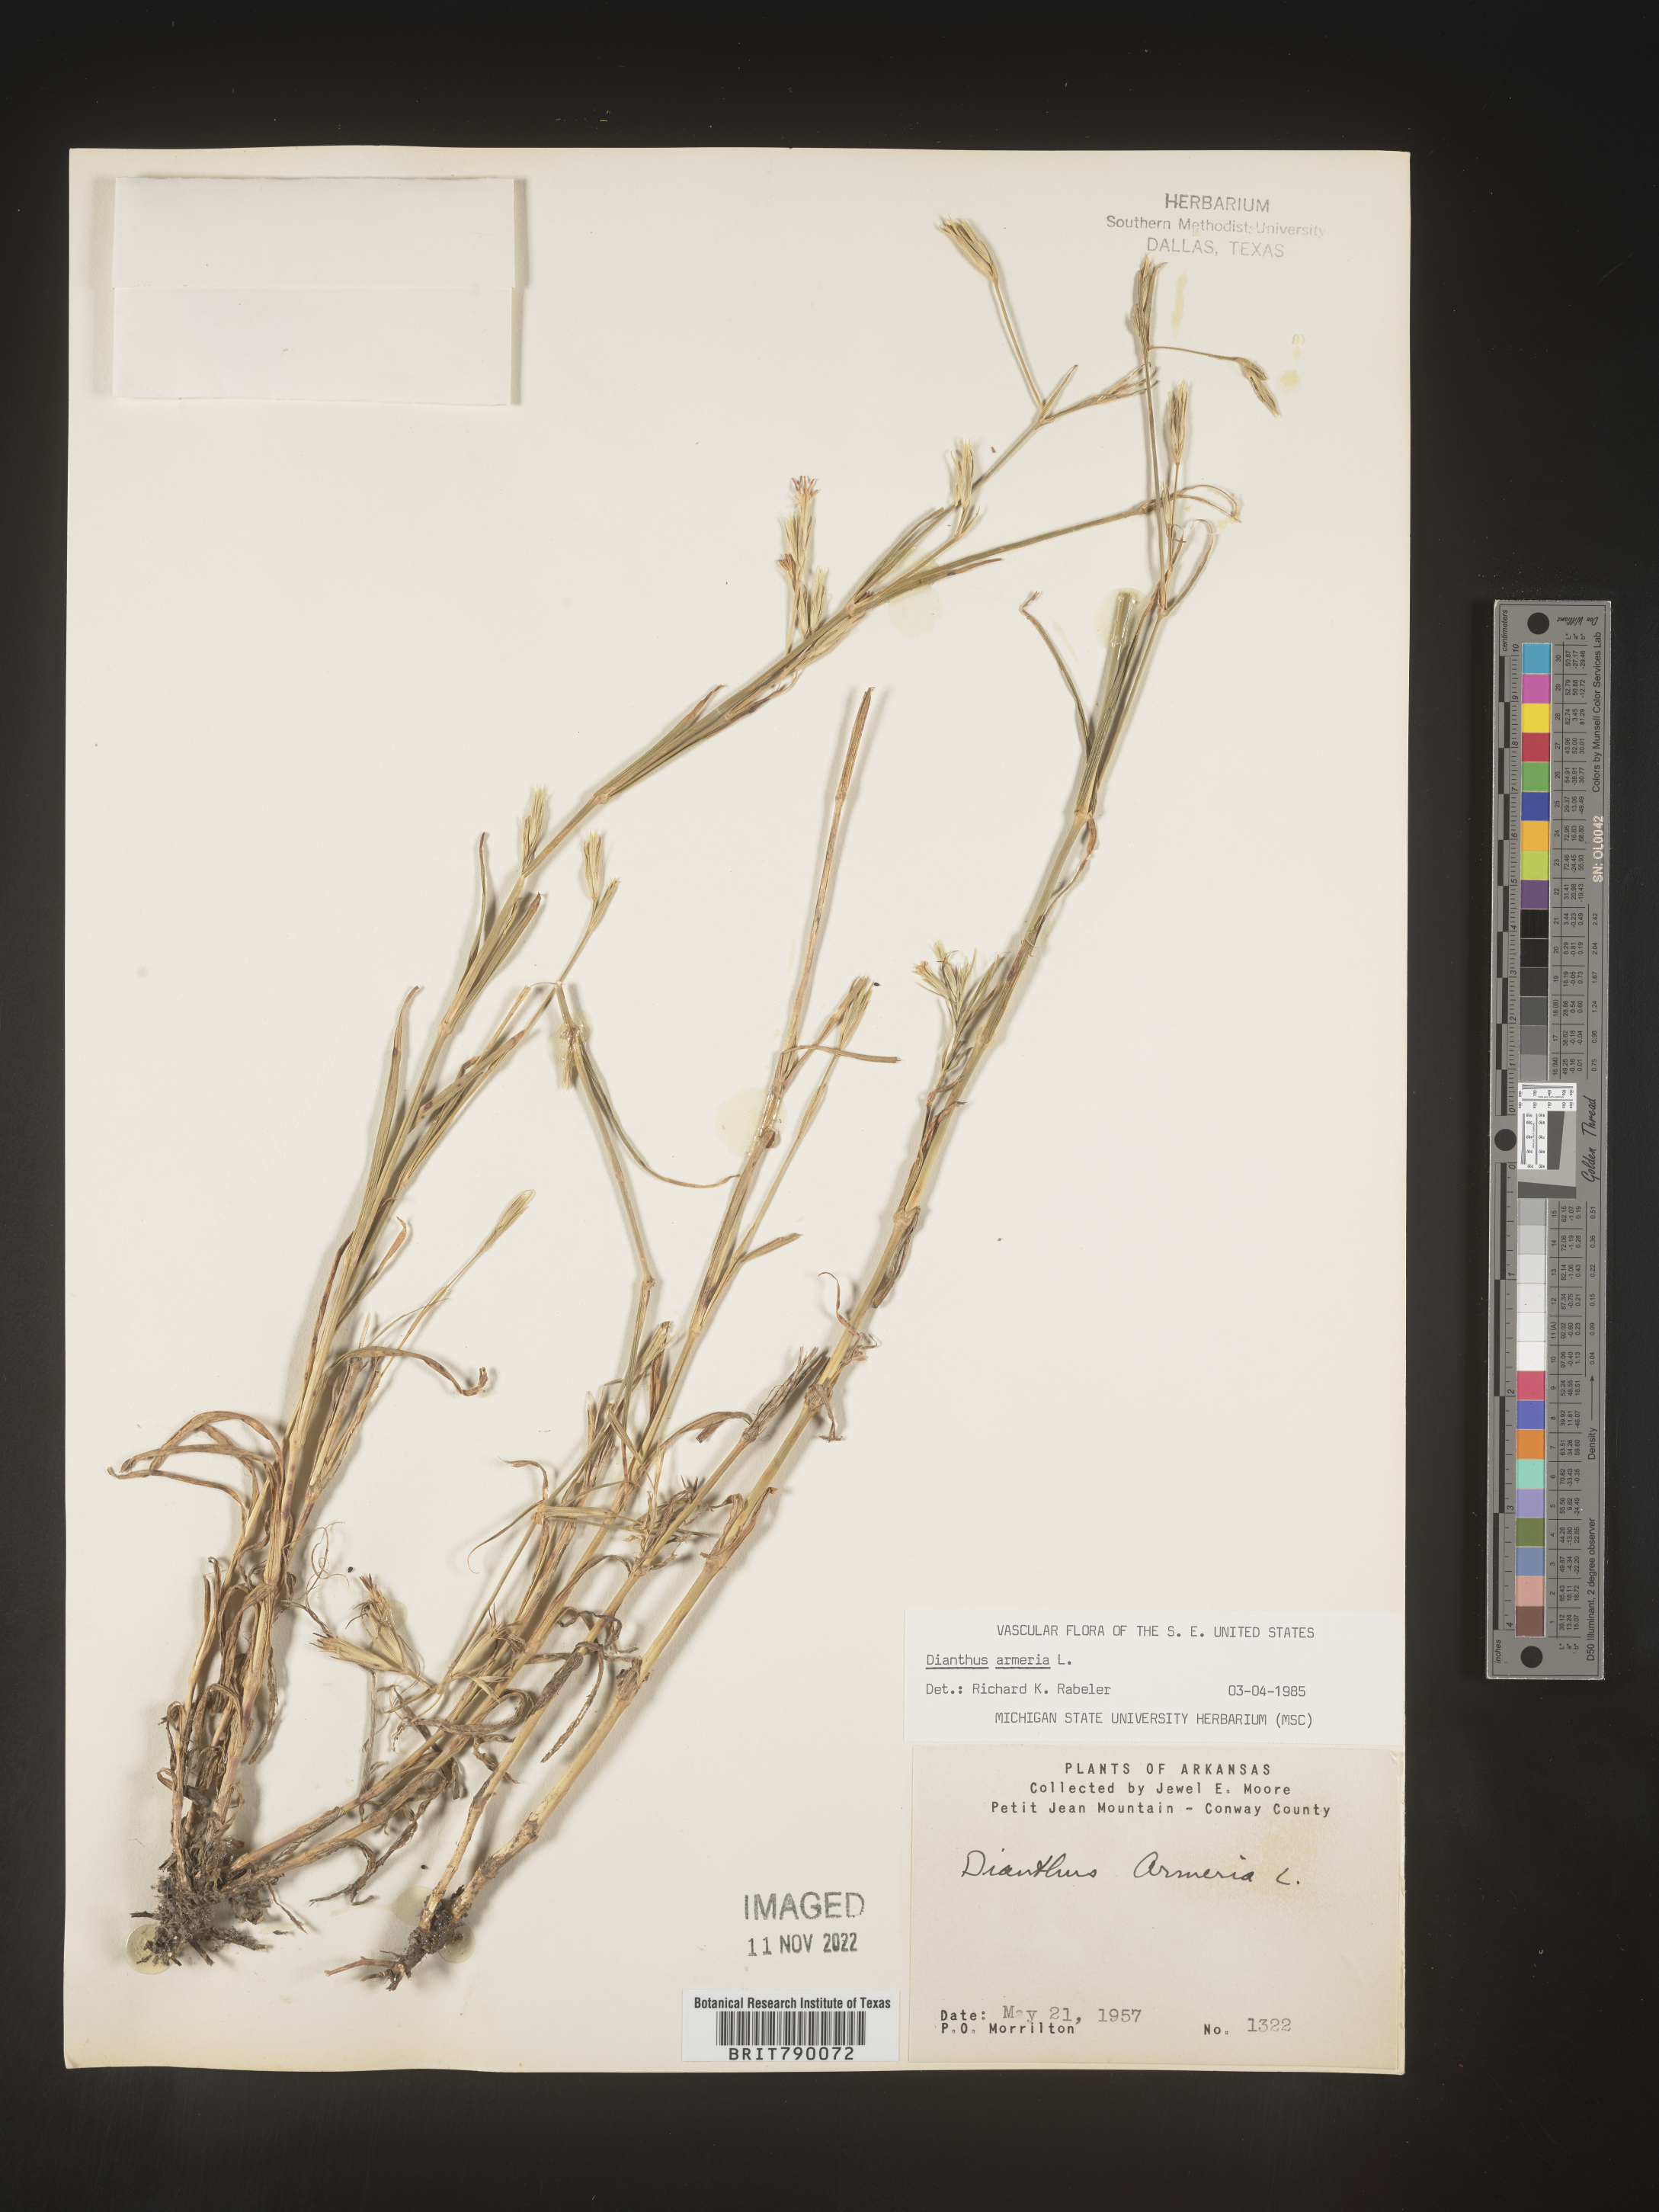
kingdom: Plantae
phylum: Tracheophyta
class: Magnoliopsida
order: Caryophyllales
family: Caryophyllaceae
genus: Dianthus
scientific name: Dianthus armeria
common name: Deptford pink
